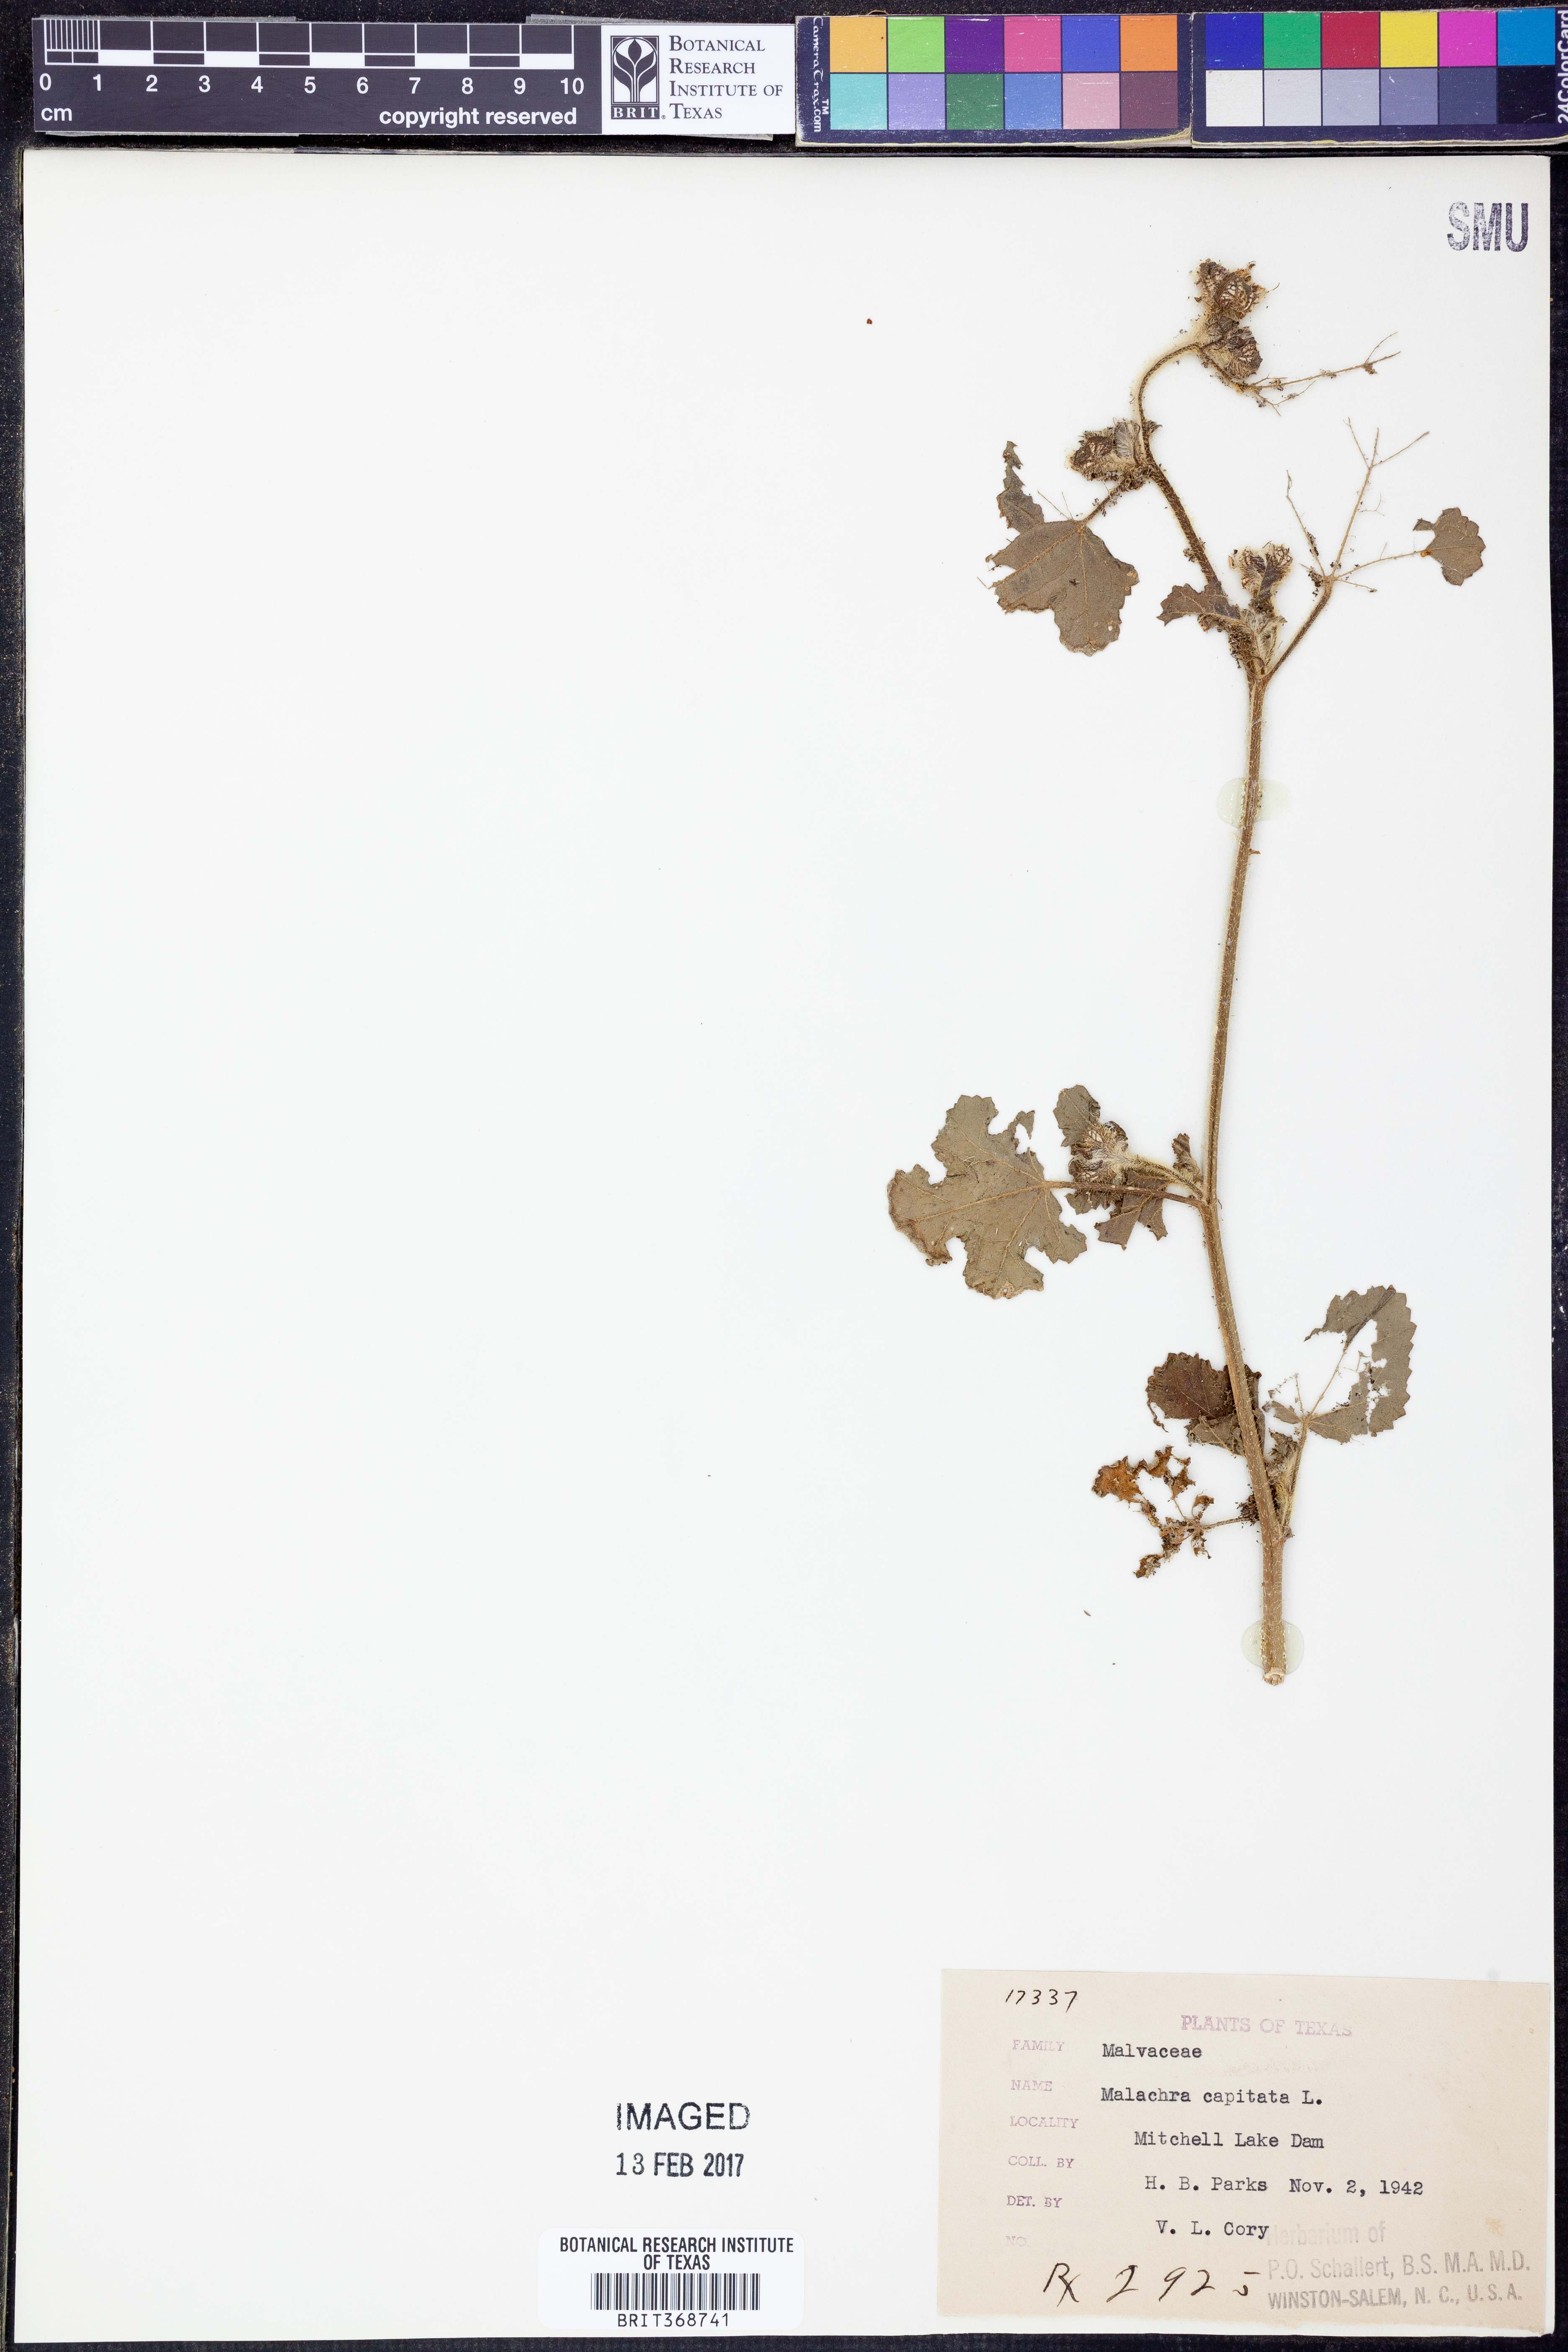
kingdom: Plantae
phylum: Tracheophyta
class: Magnoliopsida
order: Malvales
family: Malvaceae
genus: Malachra
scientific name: Malachra capitata
